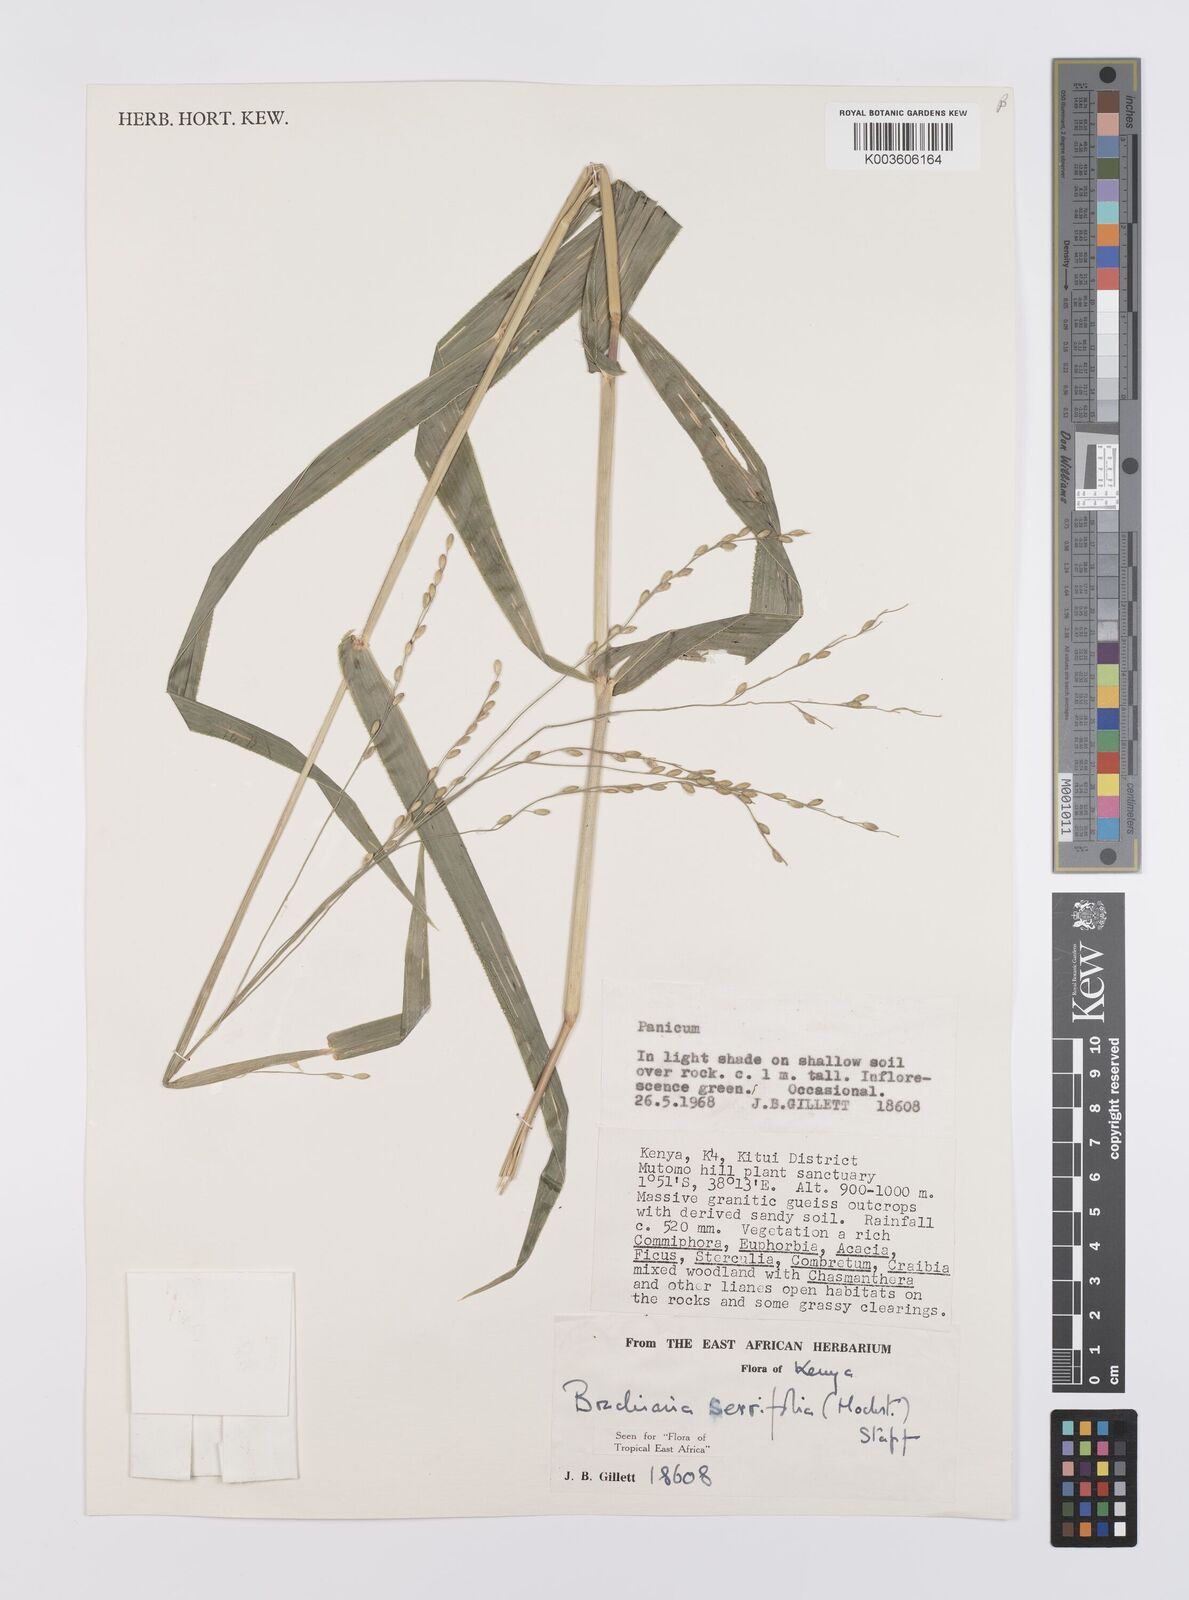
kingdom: Plantae
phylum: Tracheophyta
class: Liliopsida
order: Poales
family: Poaceae
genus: Urochloa
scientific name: Urochloa serrifolia
